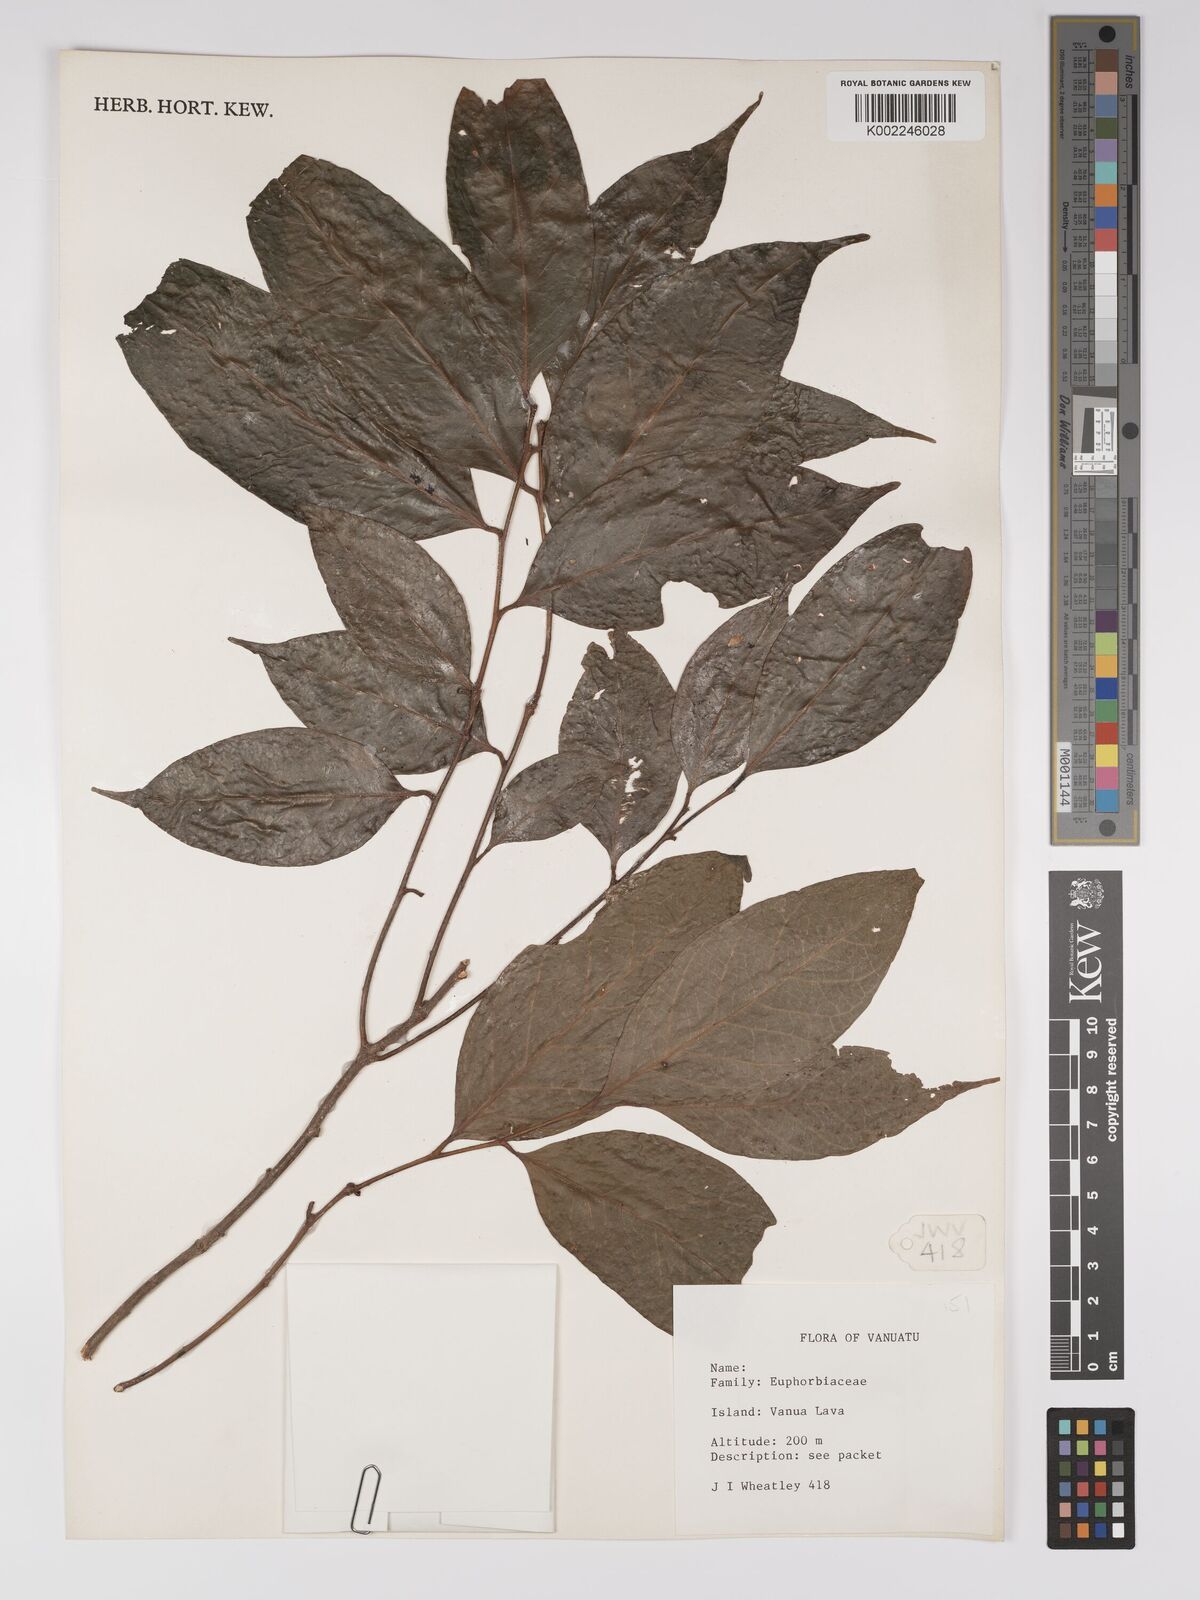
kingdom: Plantae
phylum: Tracheophyta
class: Magnoliopsida
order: Malpighiales
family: Euphorbiaceae
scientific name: Euphorbiaceae
